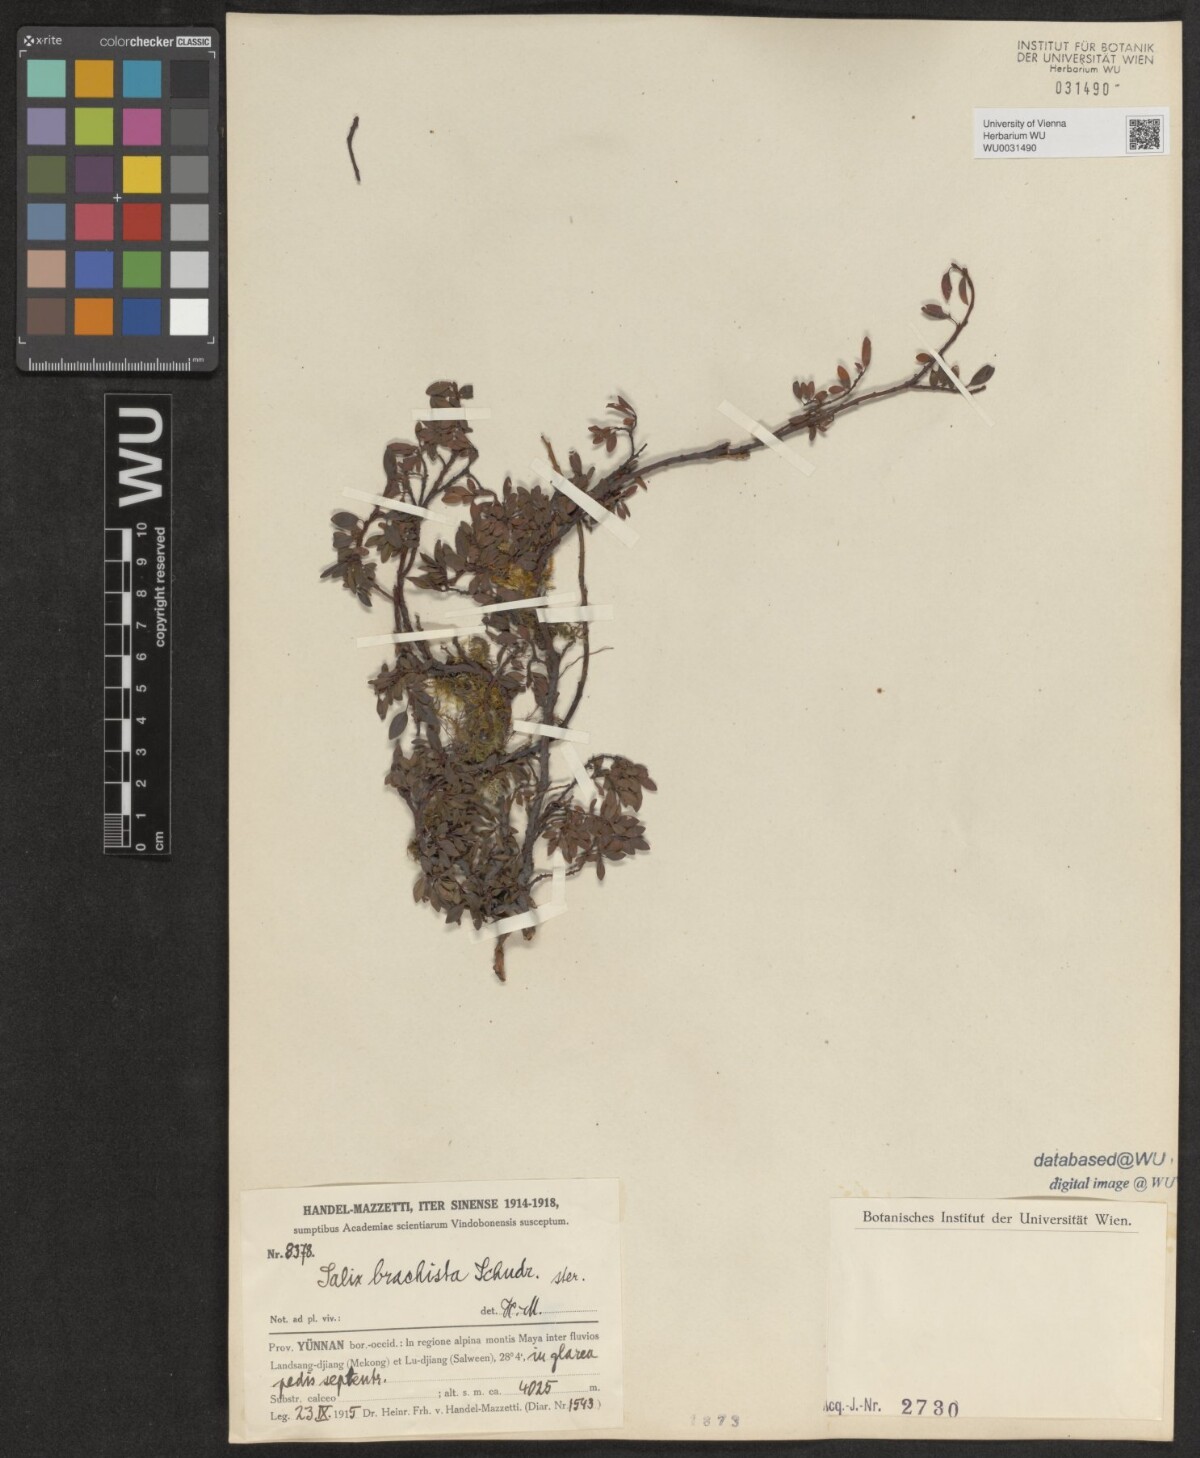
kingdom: Plantae
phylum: Tracheophyta
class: Magnoliopsida
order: Malpighiales
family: Salicaceae
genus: Salix
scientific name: Salix lindleyana
